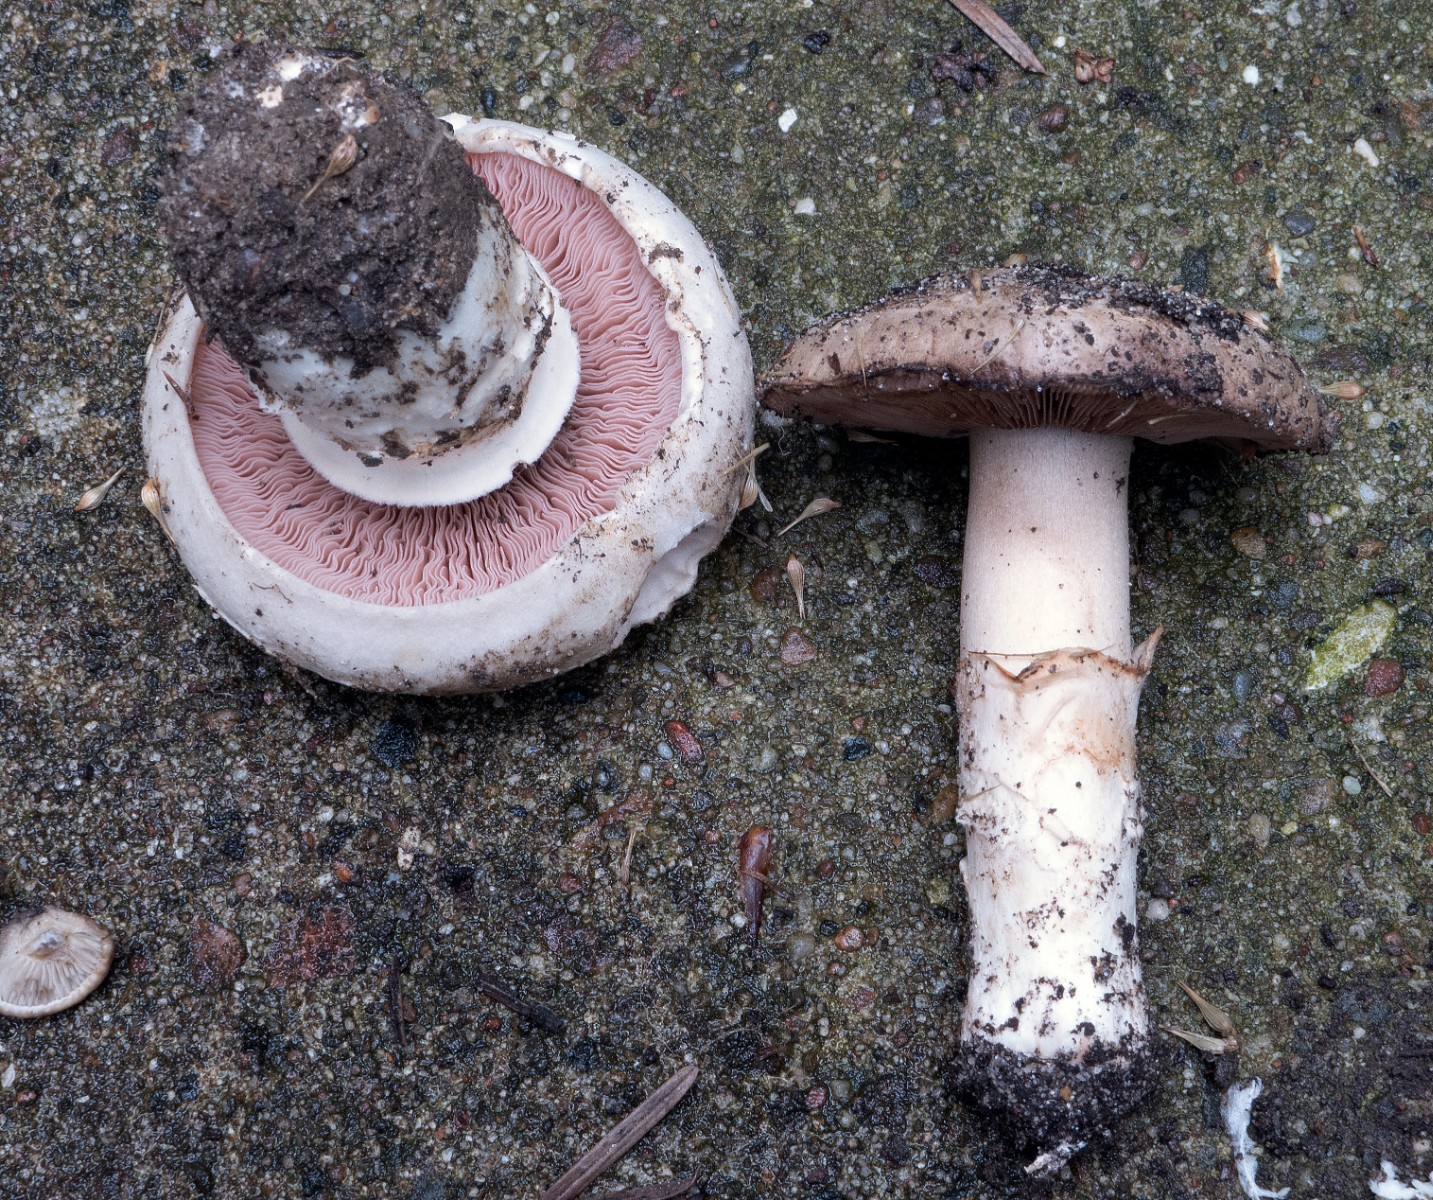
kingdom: Fungi
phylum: Basidiomycota
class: Agaricomycetes
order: Agaricales
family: Agaricaceae
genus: Agaricus
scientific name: Agaricus
